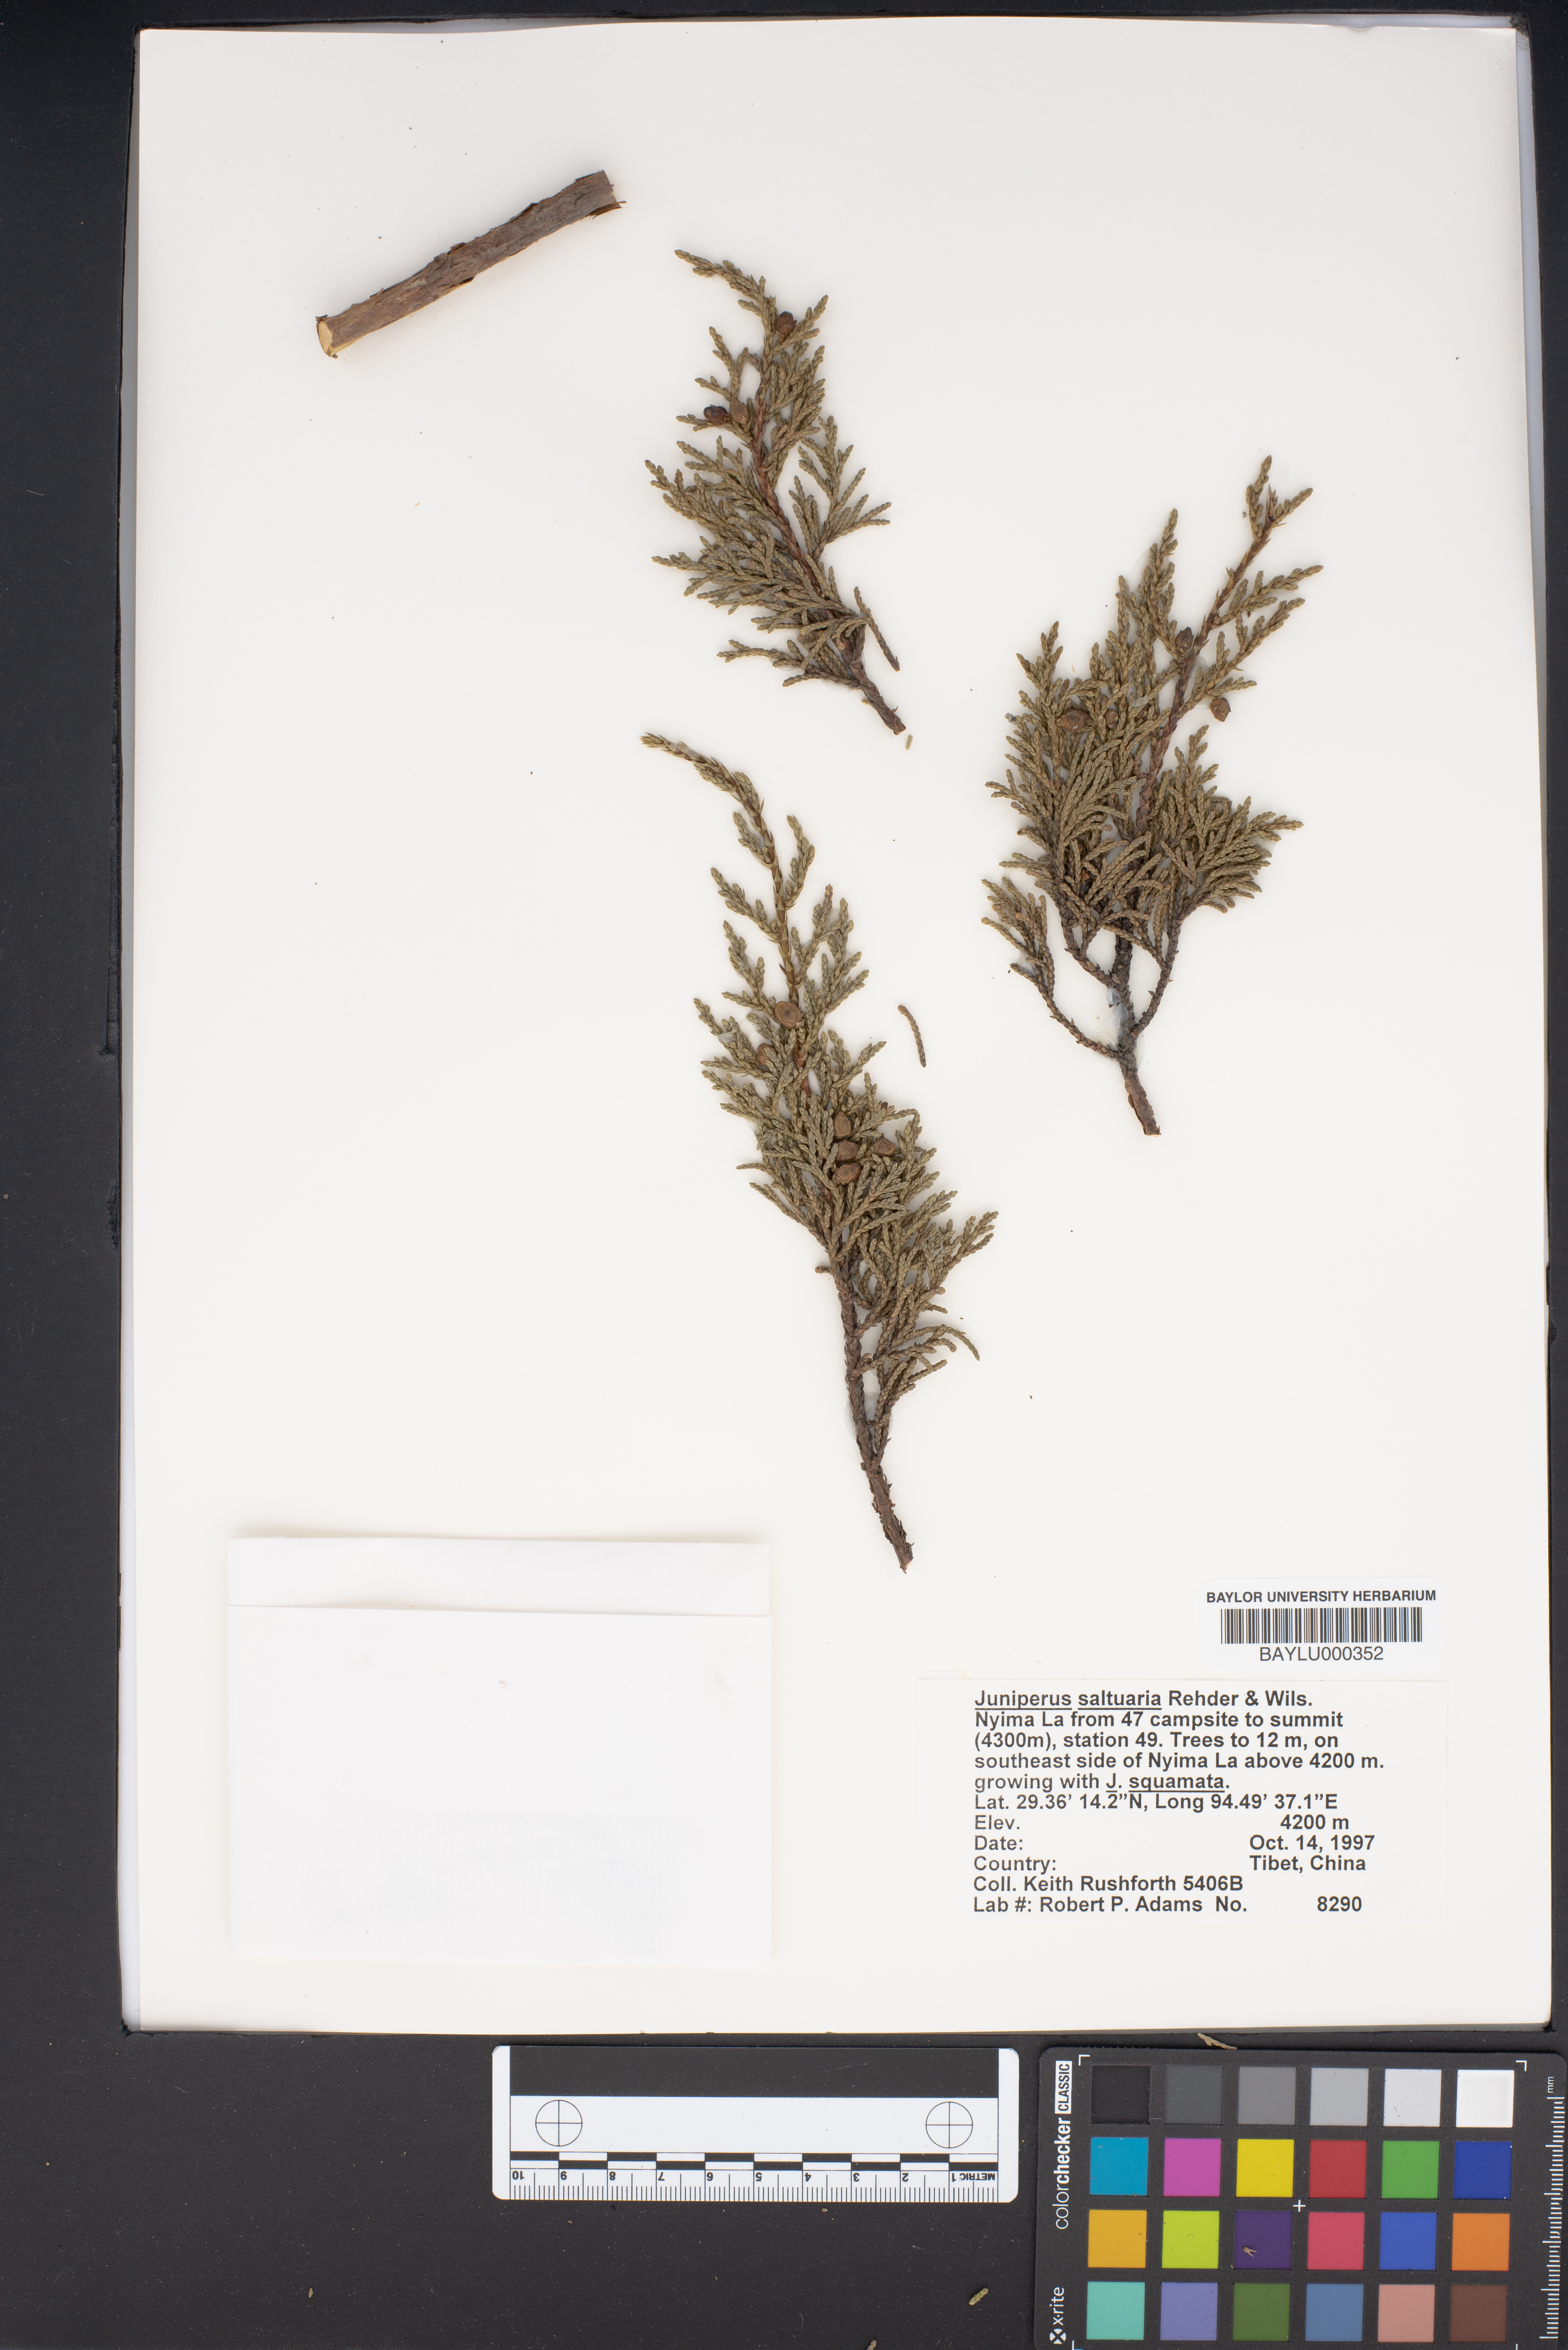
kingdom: Plantae
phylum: Tracheophyta
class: Pinopsida
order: Pinales
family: Cupressaceae
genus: Juniperus
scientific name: Juniperus saltuaria
